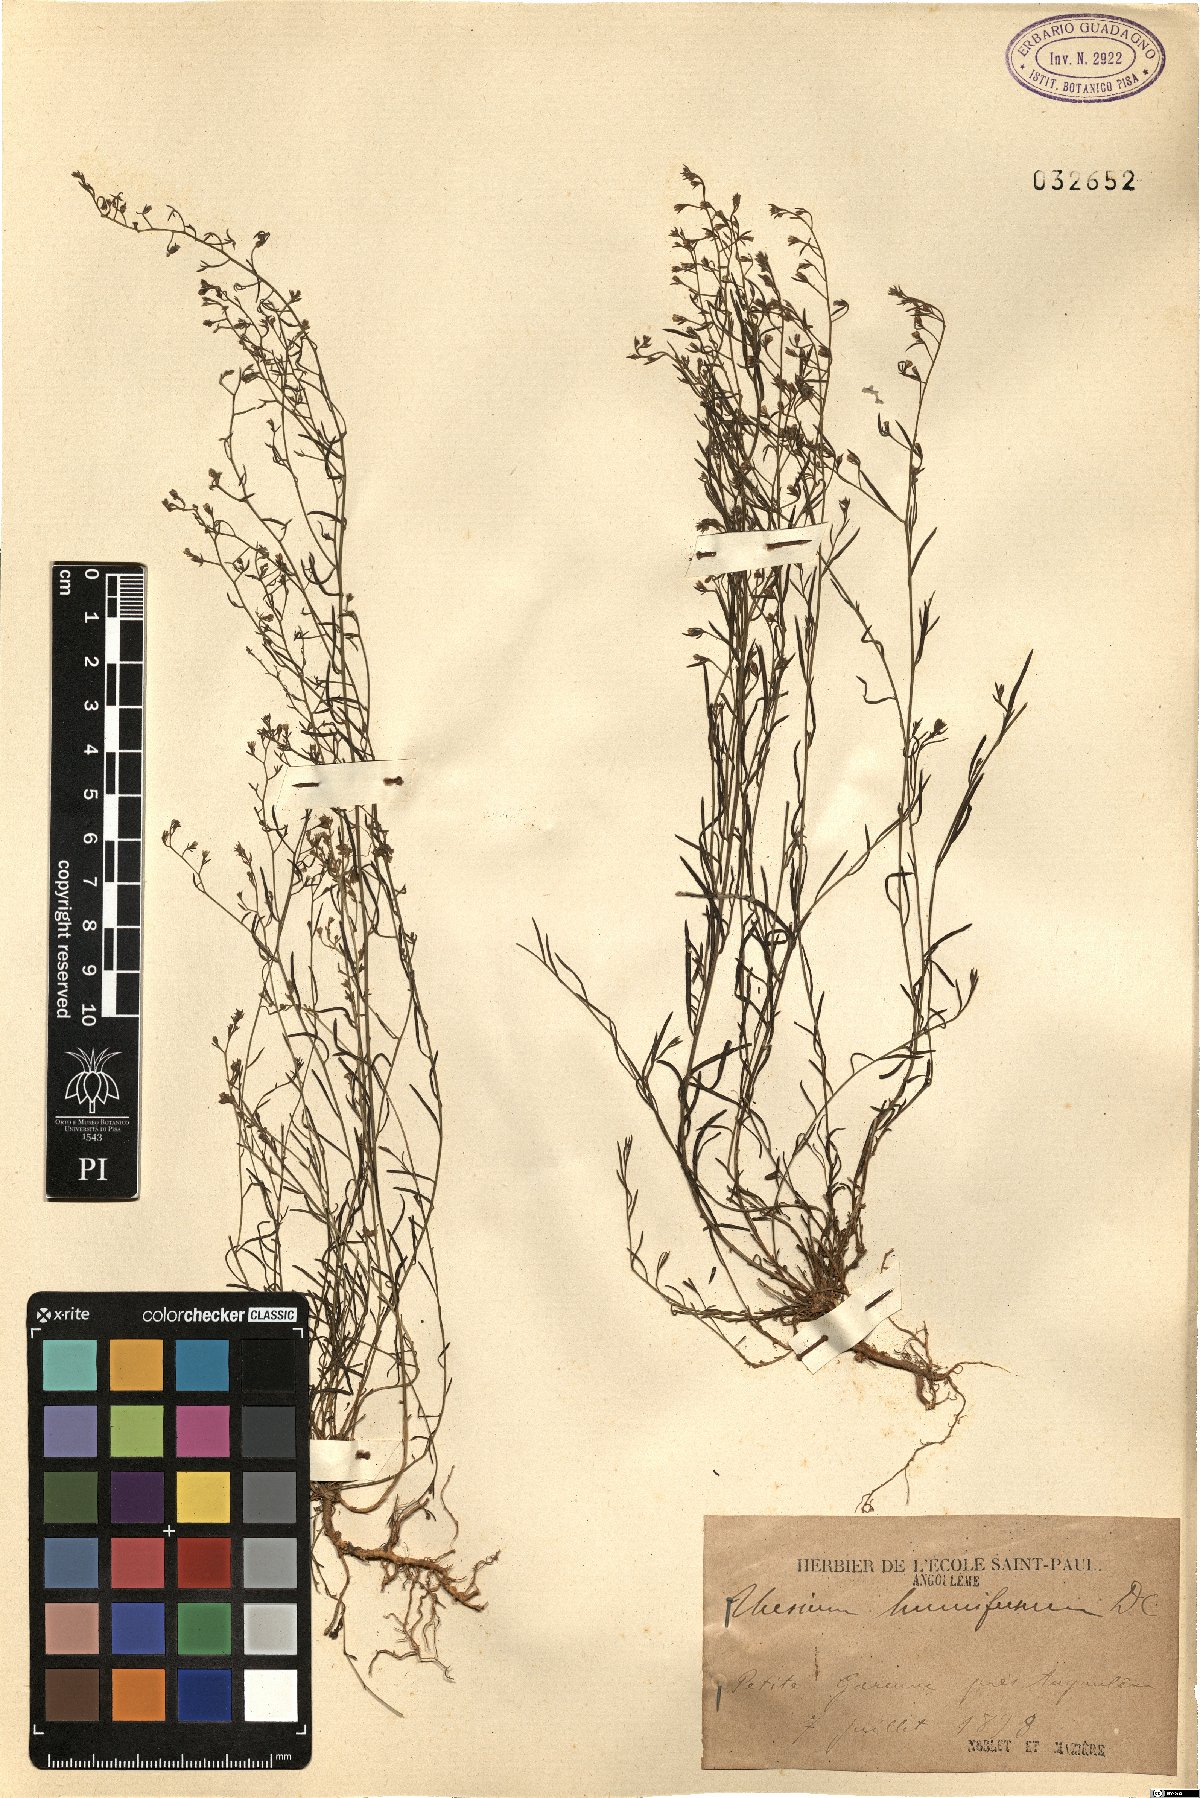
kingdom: Plantae
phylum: Tracheophyta
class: Magnoliopsida
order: Santalales
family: Thesiaceae
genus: Thesium
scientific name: Thesium humifusum
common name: Bastard-toadflax
